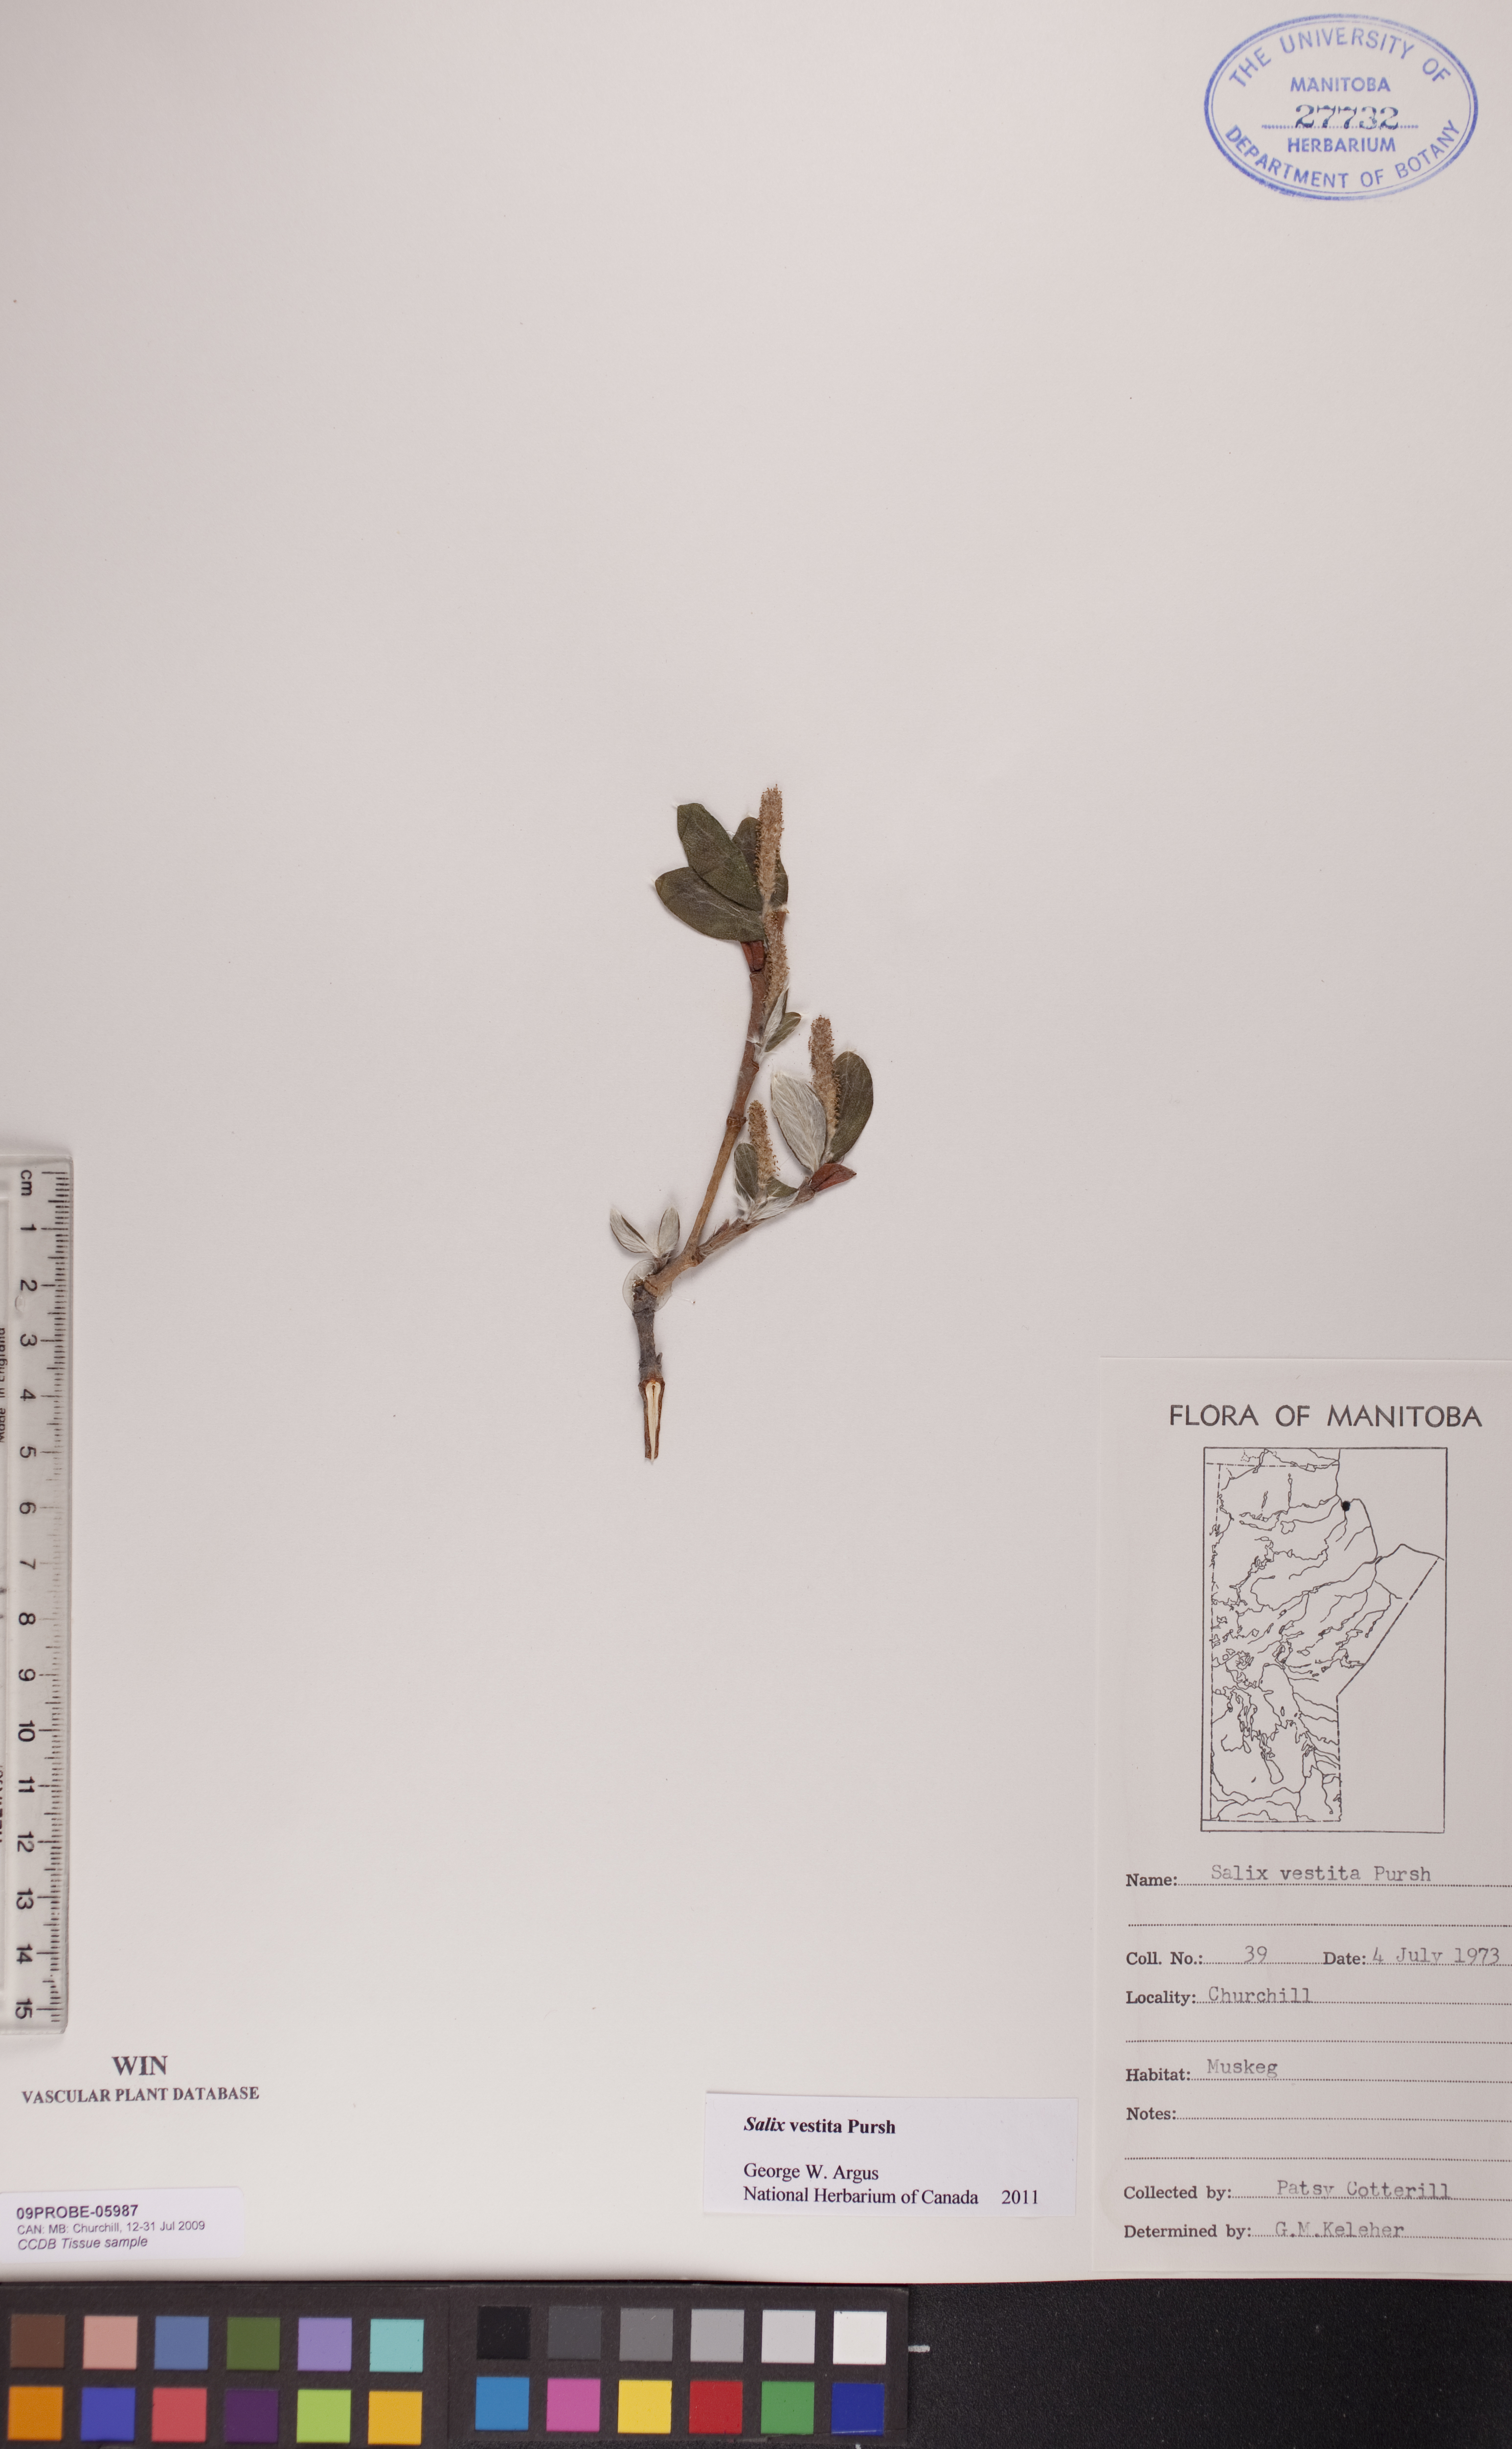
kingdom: Plantae
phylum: Tracheophyta
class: Magnoliopsida
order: Malpighiales
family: Salicaceae
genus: Salix
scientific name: Salix vestita
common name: Hairy willow
